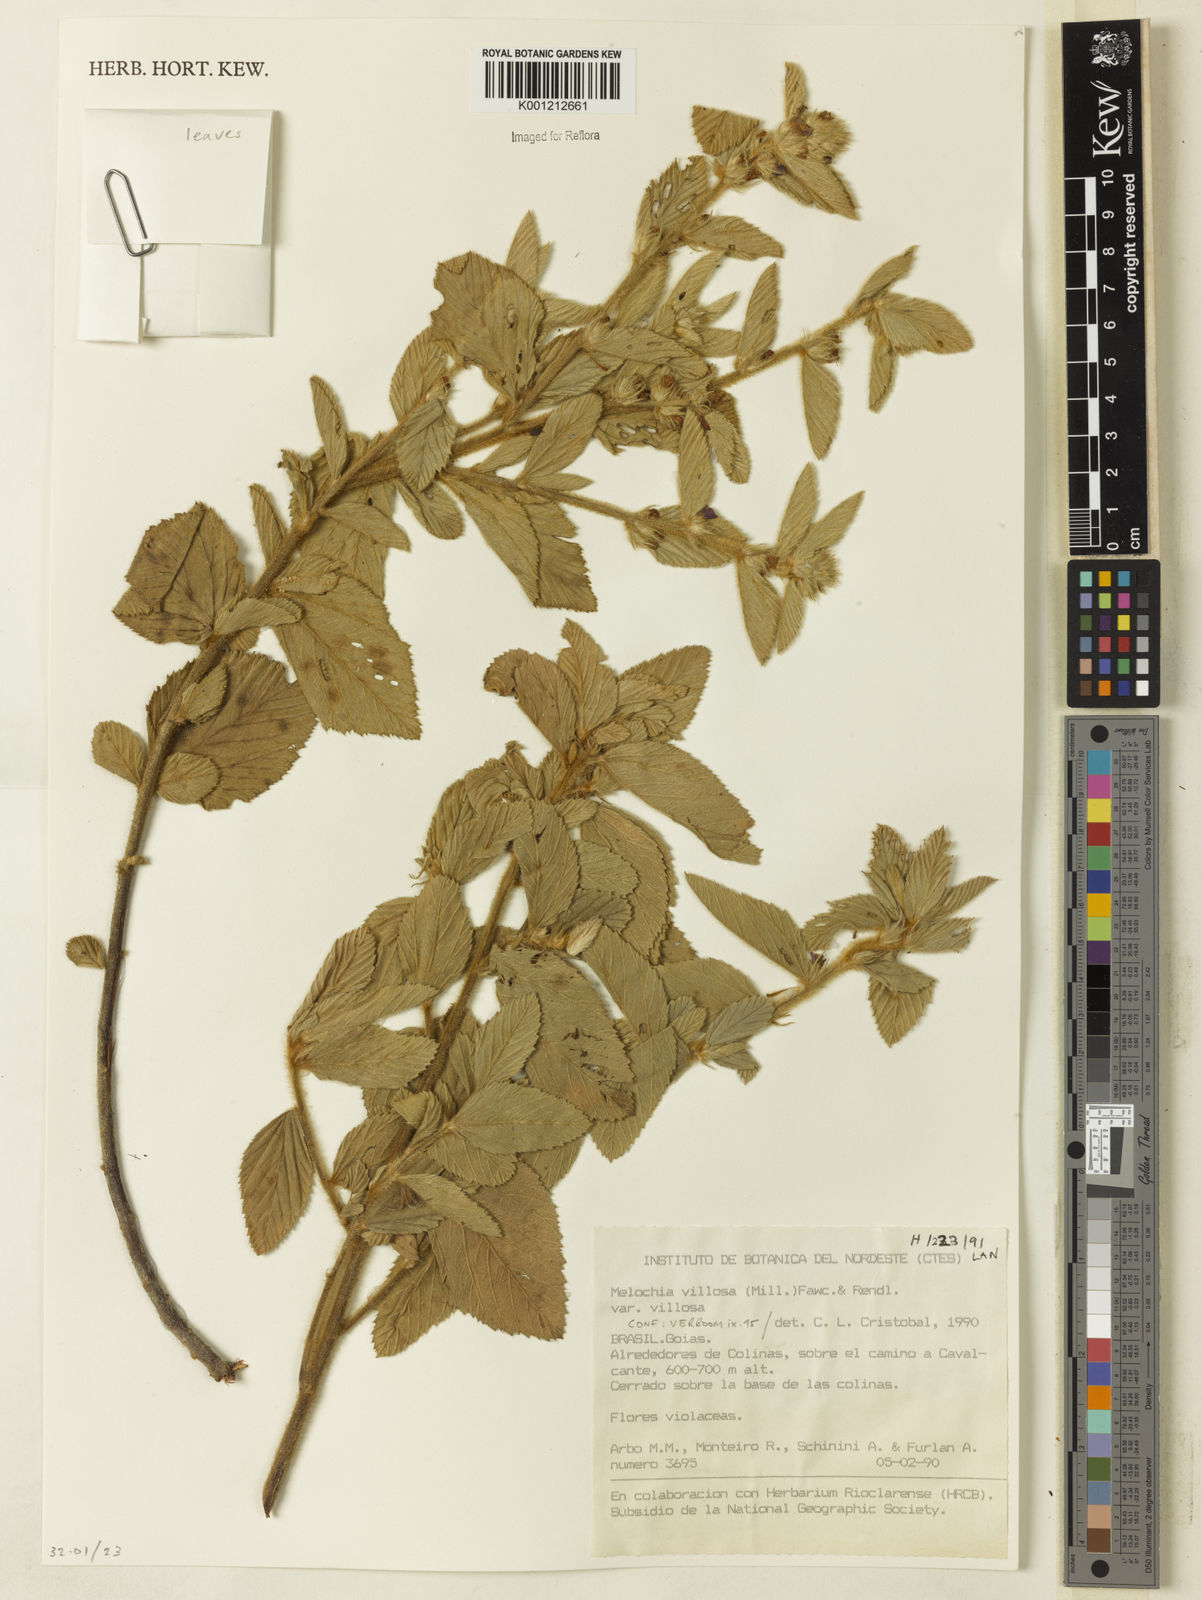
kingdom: Plantae
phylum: Tracheophyta
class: Magnoliopsida
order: Malvales
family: Malvaceae
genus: Melochia
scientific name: Melochia spicata
